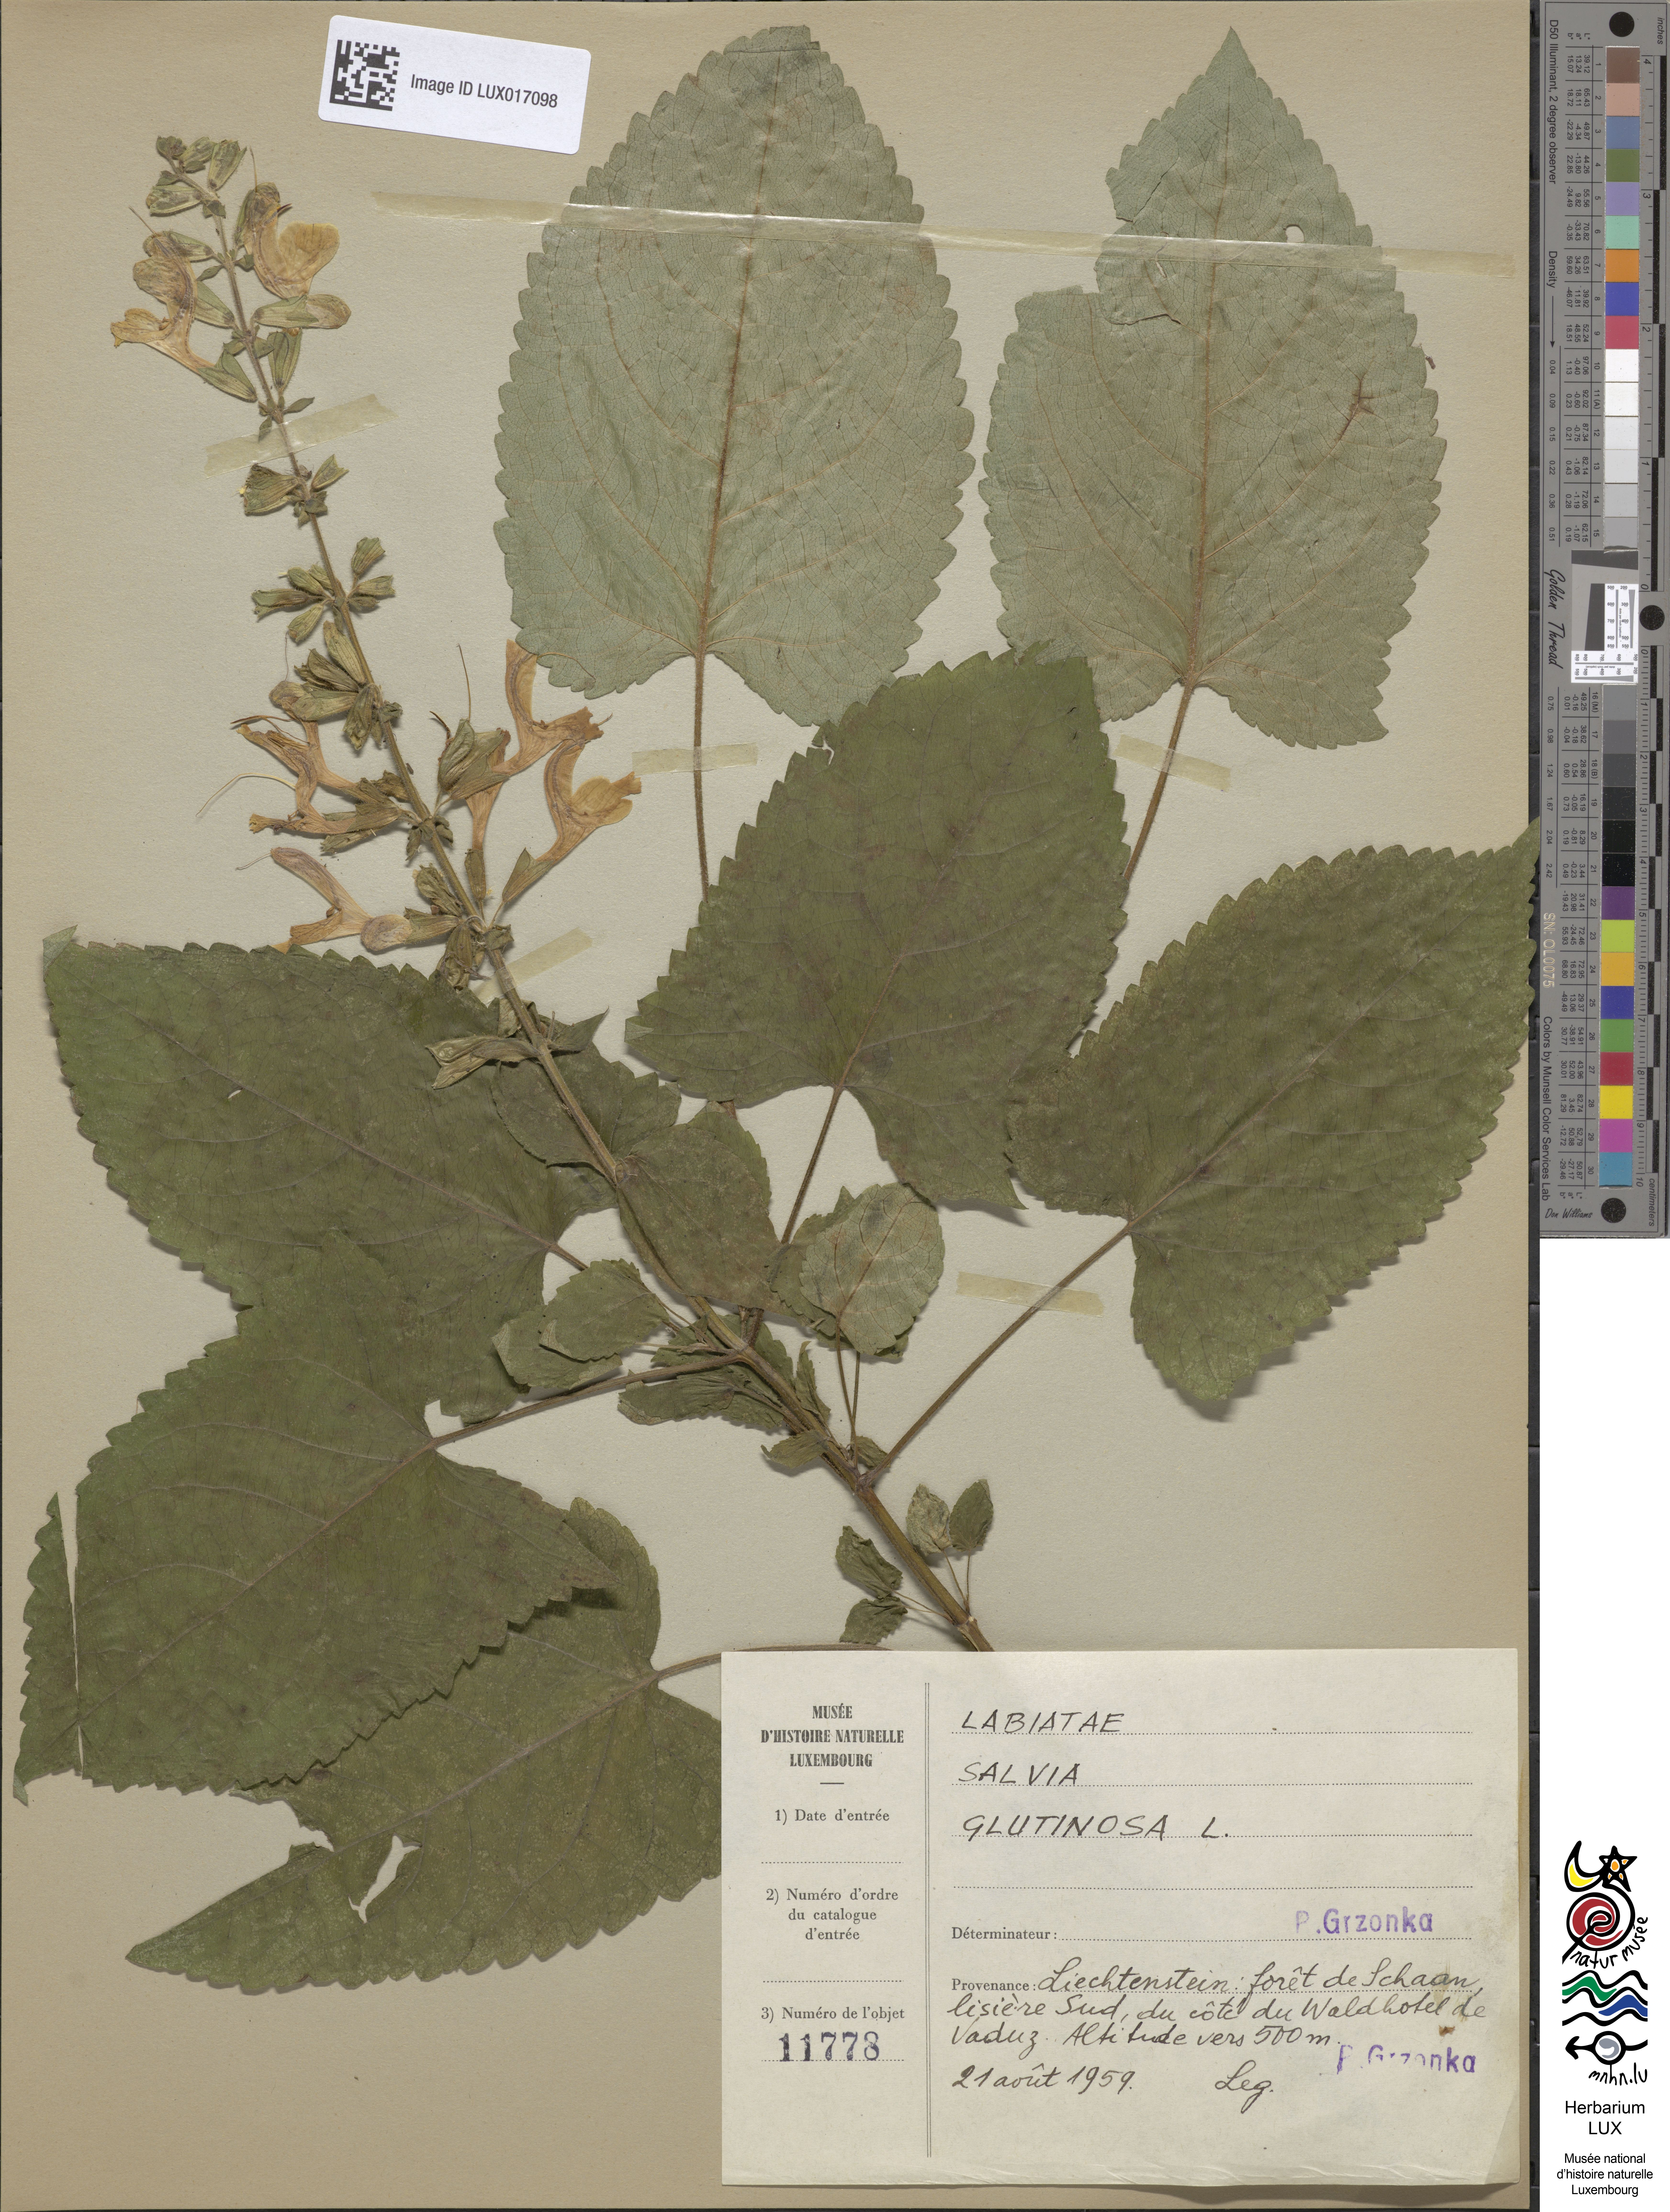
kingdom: Plantae
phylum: Tracheophyta
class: Magnoliopsida
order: Lamiales
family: Lamiaceae
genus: Salvia
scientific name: Salvia glutinosa
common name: Sticky clary
